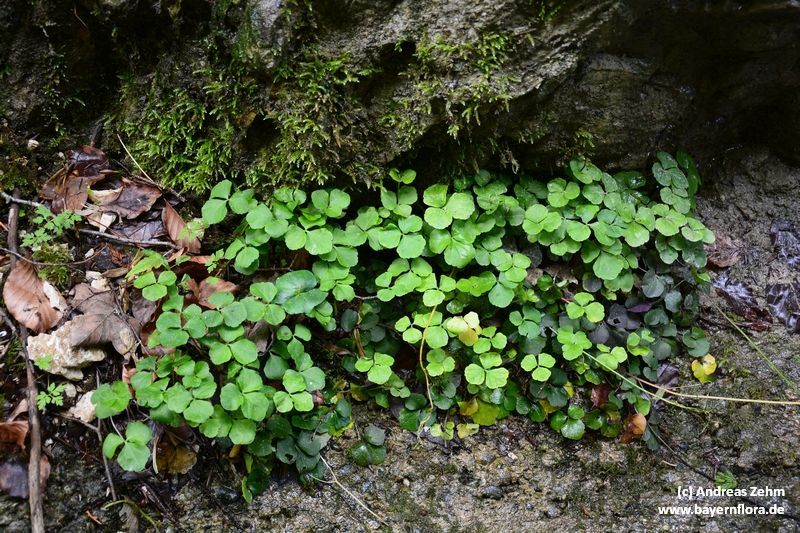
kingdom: Plantae
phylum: Tracheophyta
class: Magnoliopsida
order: Brassicales
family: Brassicaceae
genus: Cardamine
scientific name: Cardamine trifolia
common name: Trefoil cress
